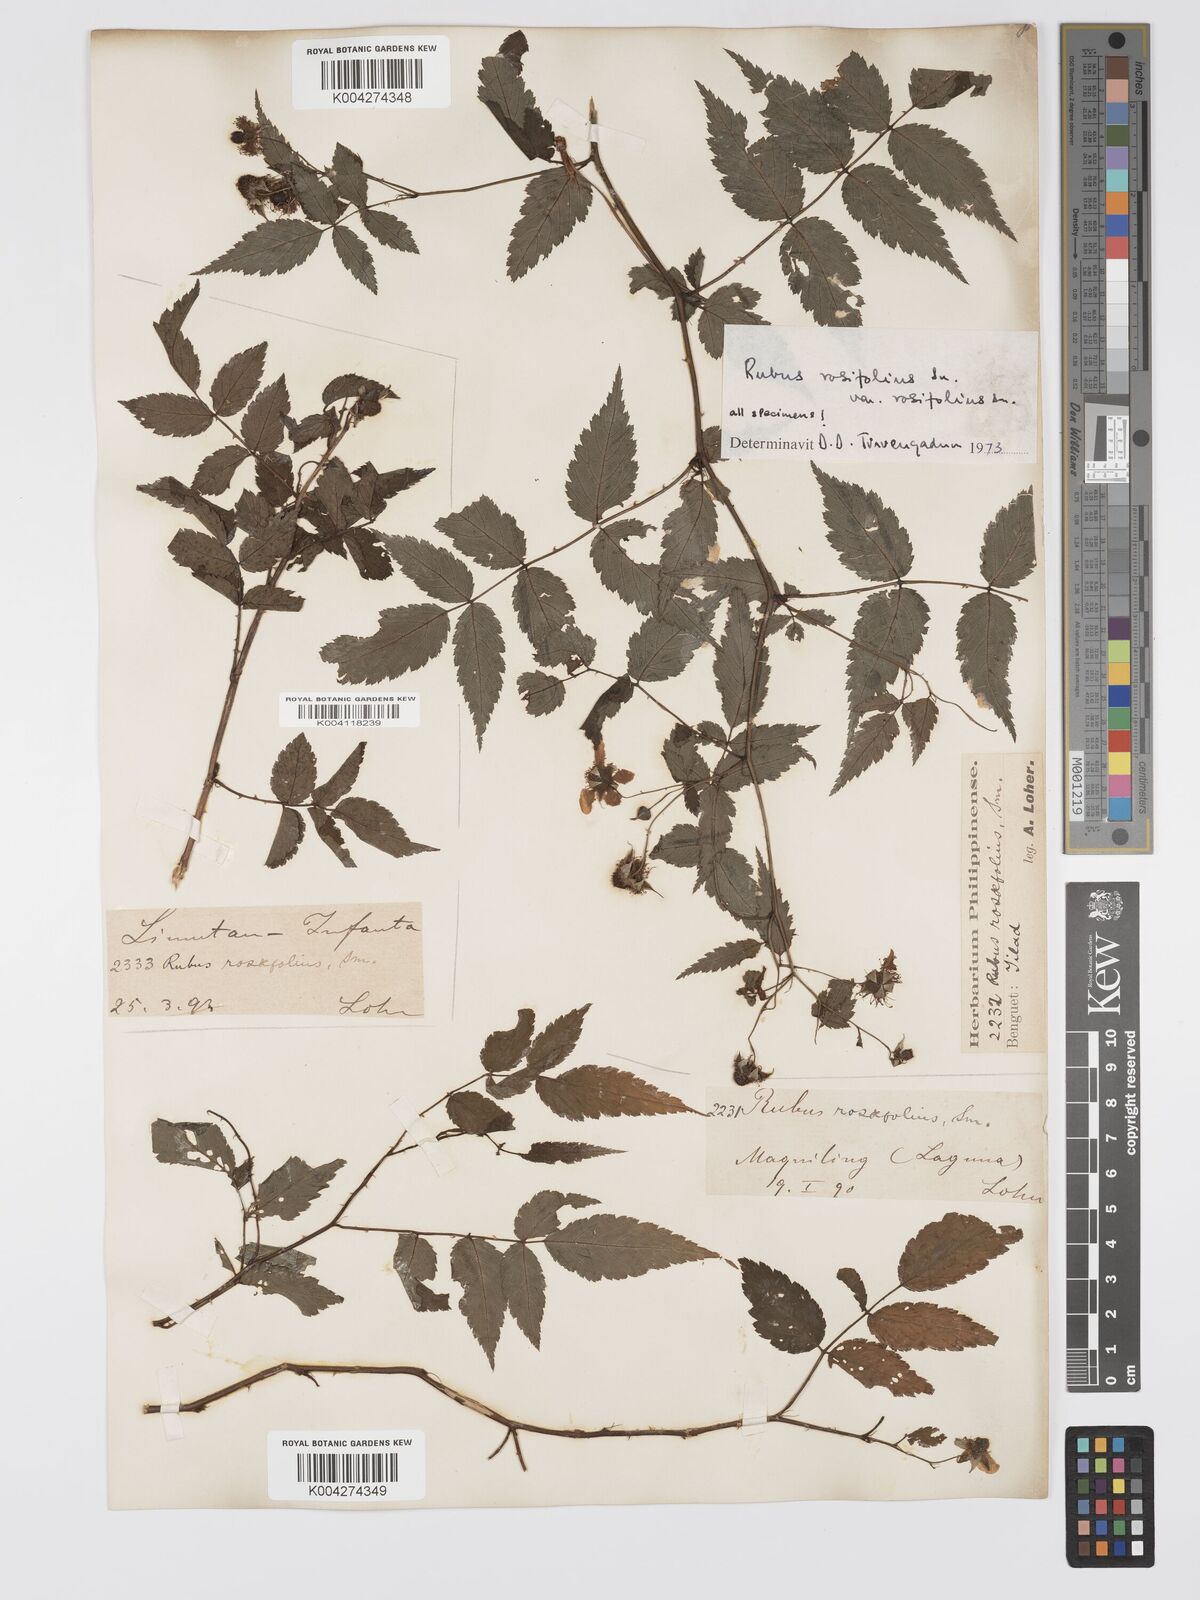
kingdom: Plantae
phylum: Tracheophyta
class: Magnoliopsida
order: Rosales
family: Rosaceae
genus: Rubus
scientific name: Rubus
